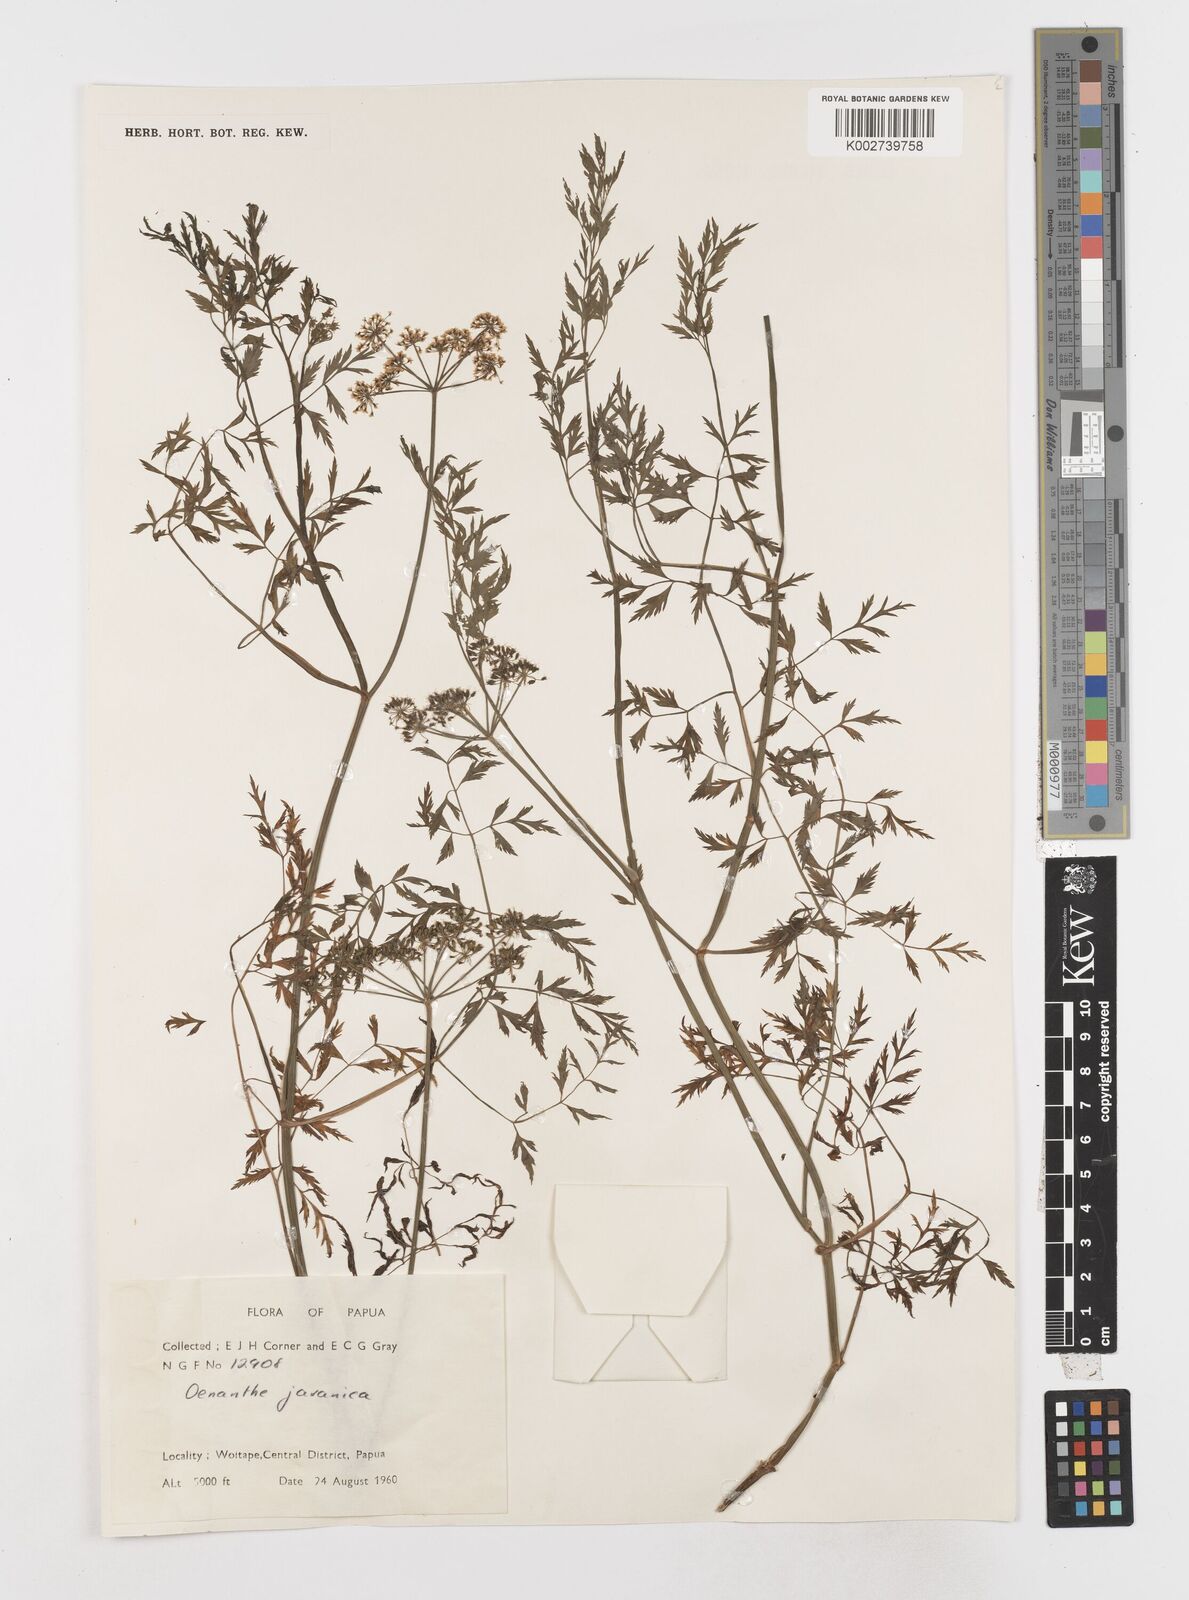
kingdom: Plantae
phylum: Tracheophyta
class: Magnoliopsida
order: Apiales
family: Apiaceae
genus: Oenanthe
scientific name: Oenanthe javanica
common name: Java water-dropwort
